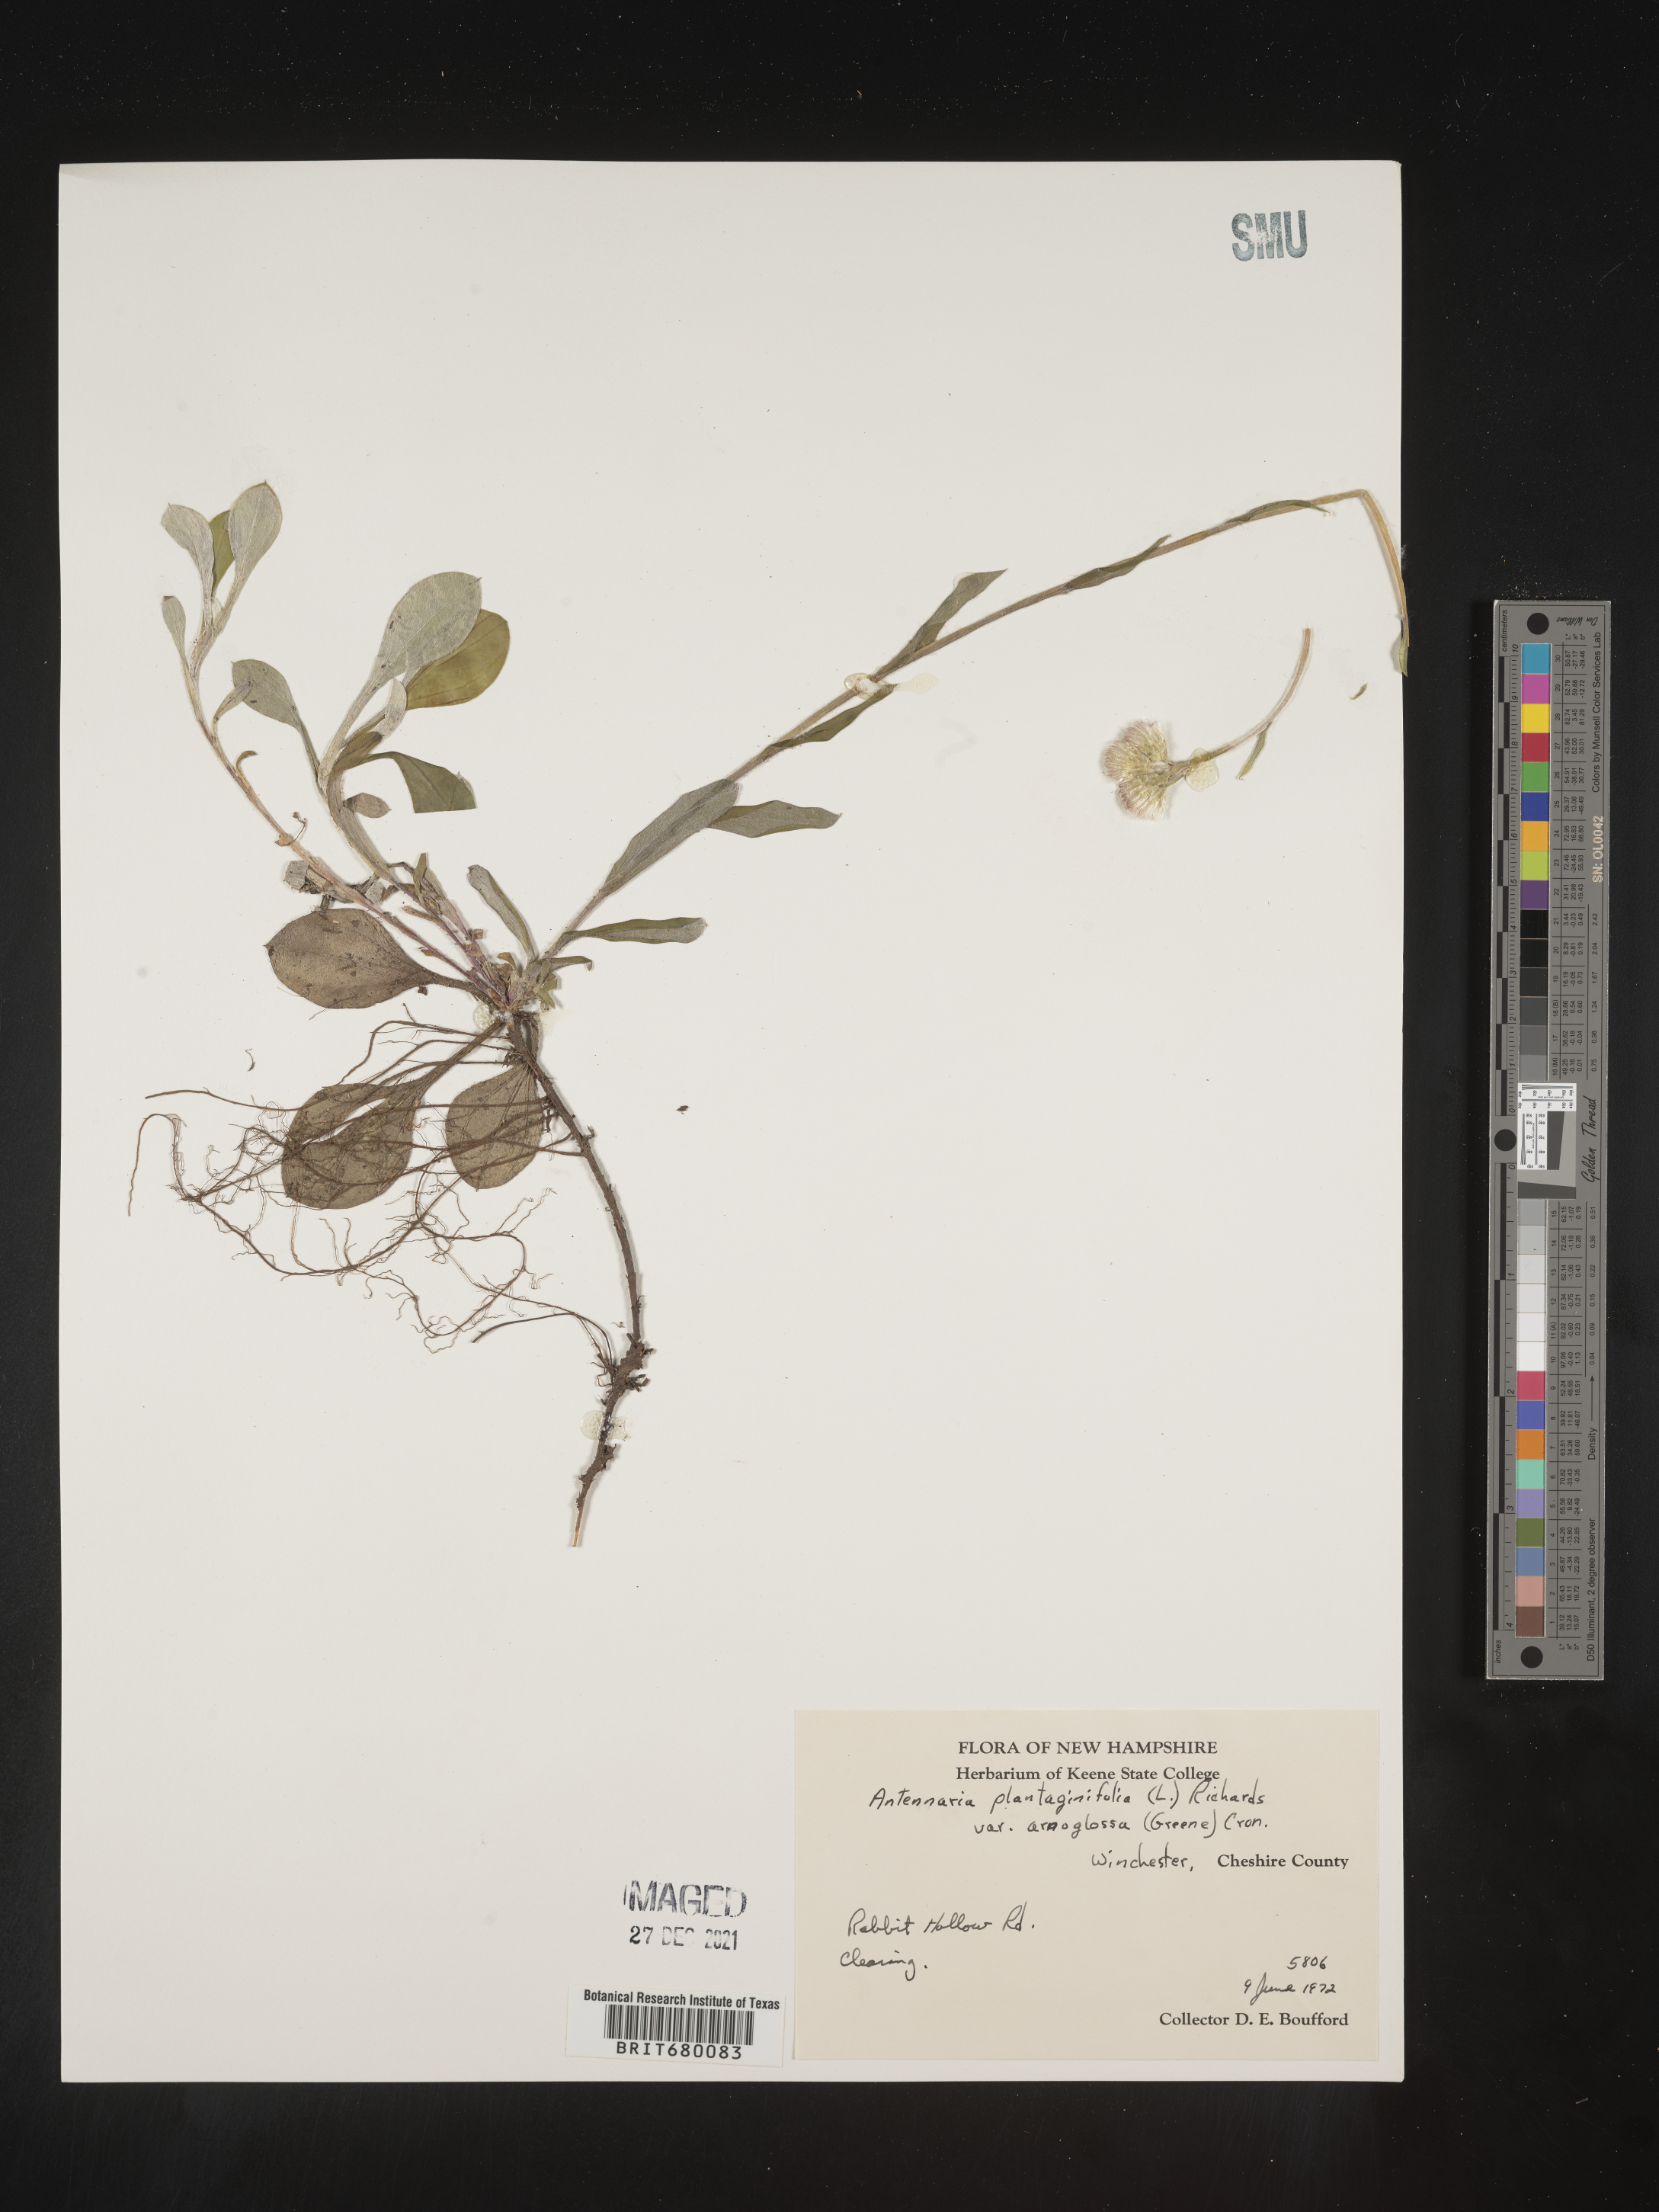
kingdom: Plantae
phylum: Tracheophyta
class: Magnoliopsida
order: Asterales
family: Asteraceae
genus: Antennaria
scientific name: Antennaria plantaginifolia
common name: Plantain-leaved pussytoes
